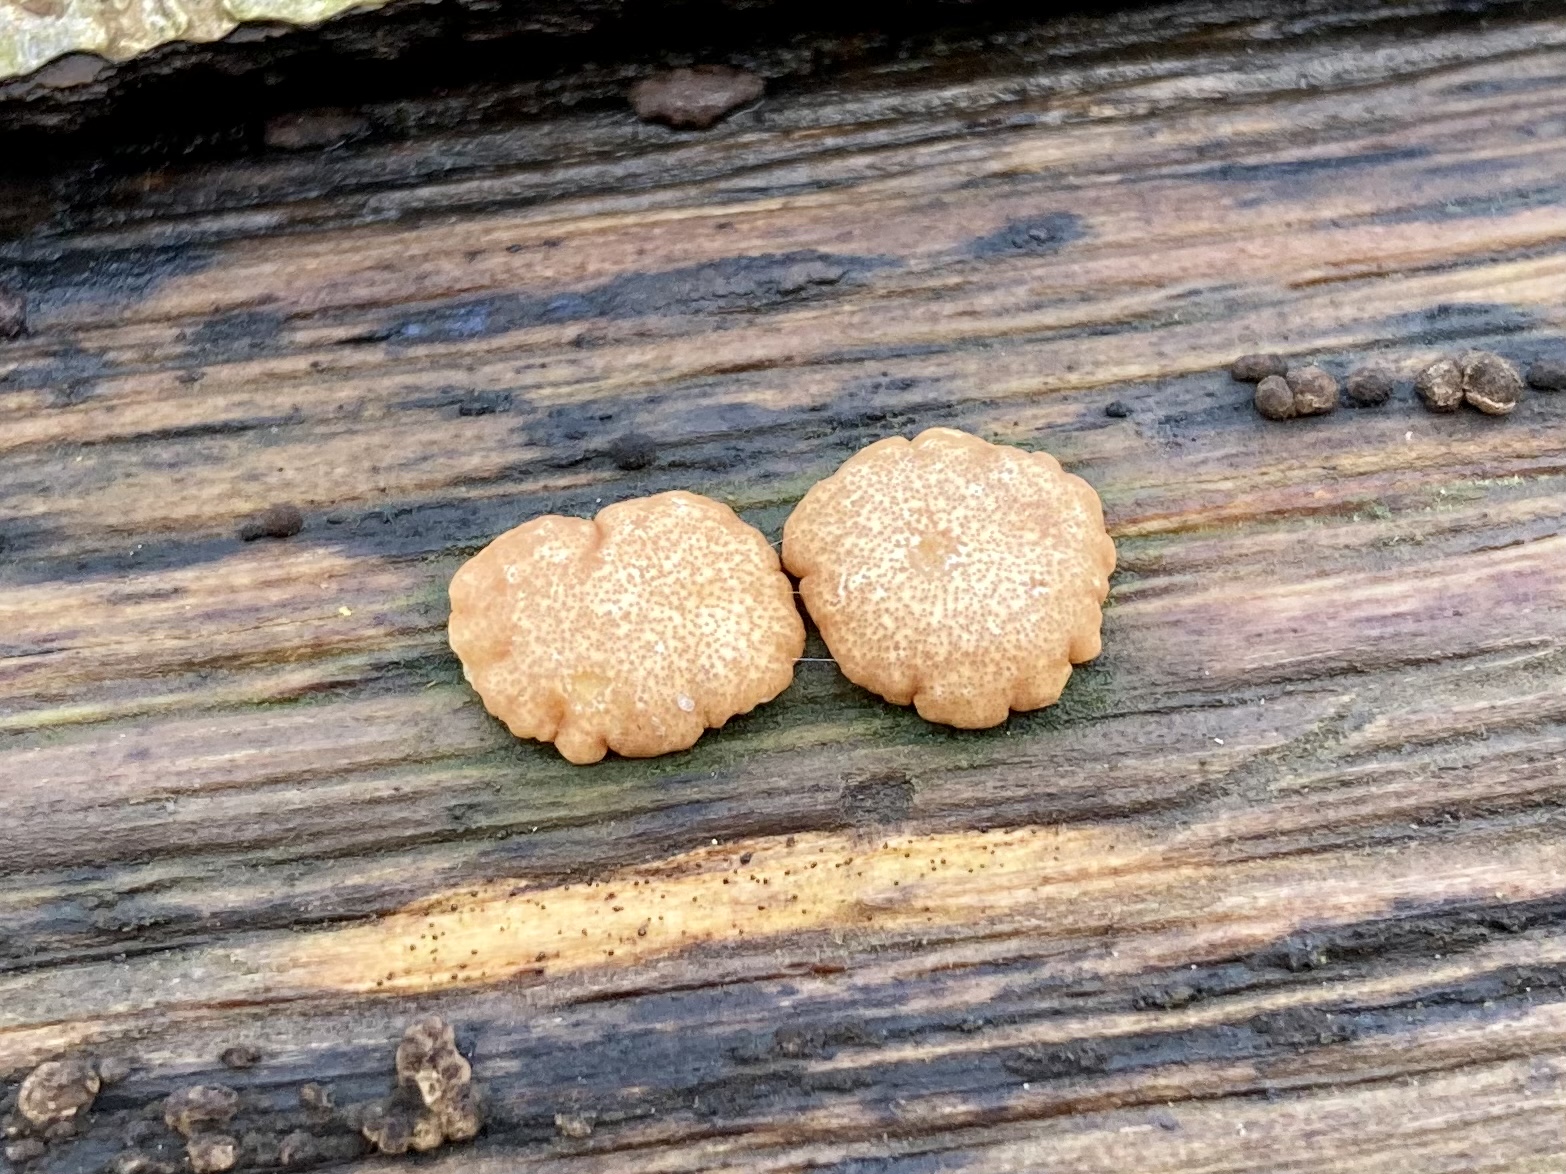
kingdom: Fungi
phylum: Ascomycota
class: Sordariomycetes
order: Hypocreales
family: Hypocreaceae
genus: Trichoderma
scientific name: Trichoderma europaeum
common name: rosabrun kødkerne
